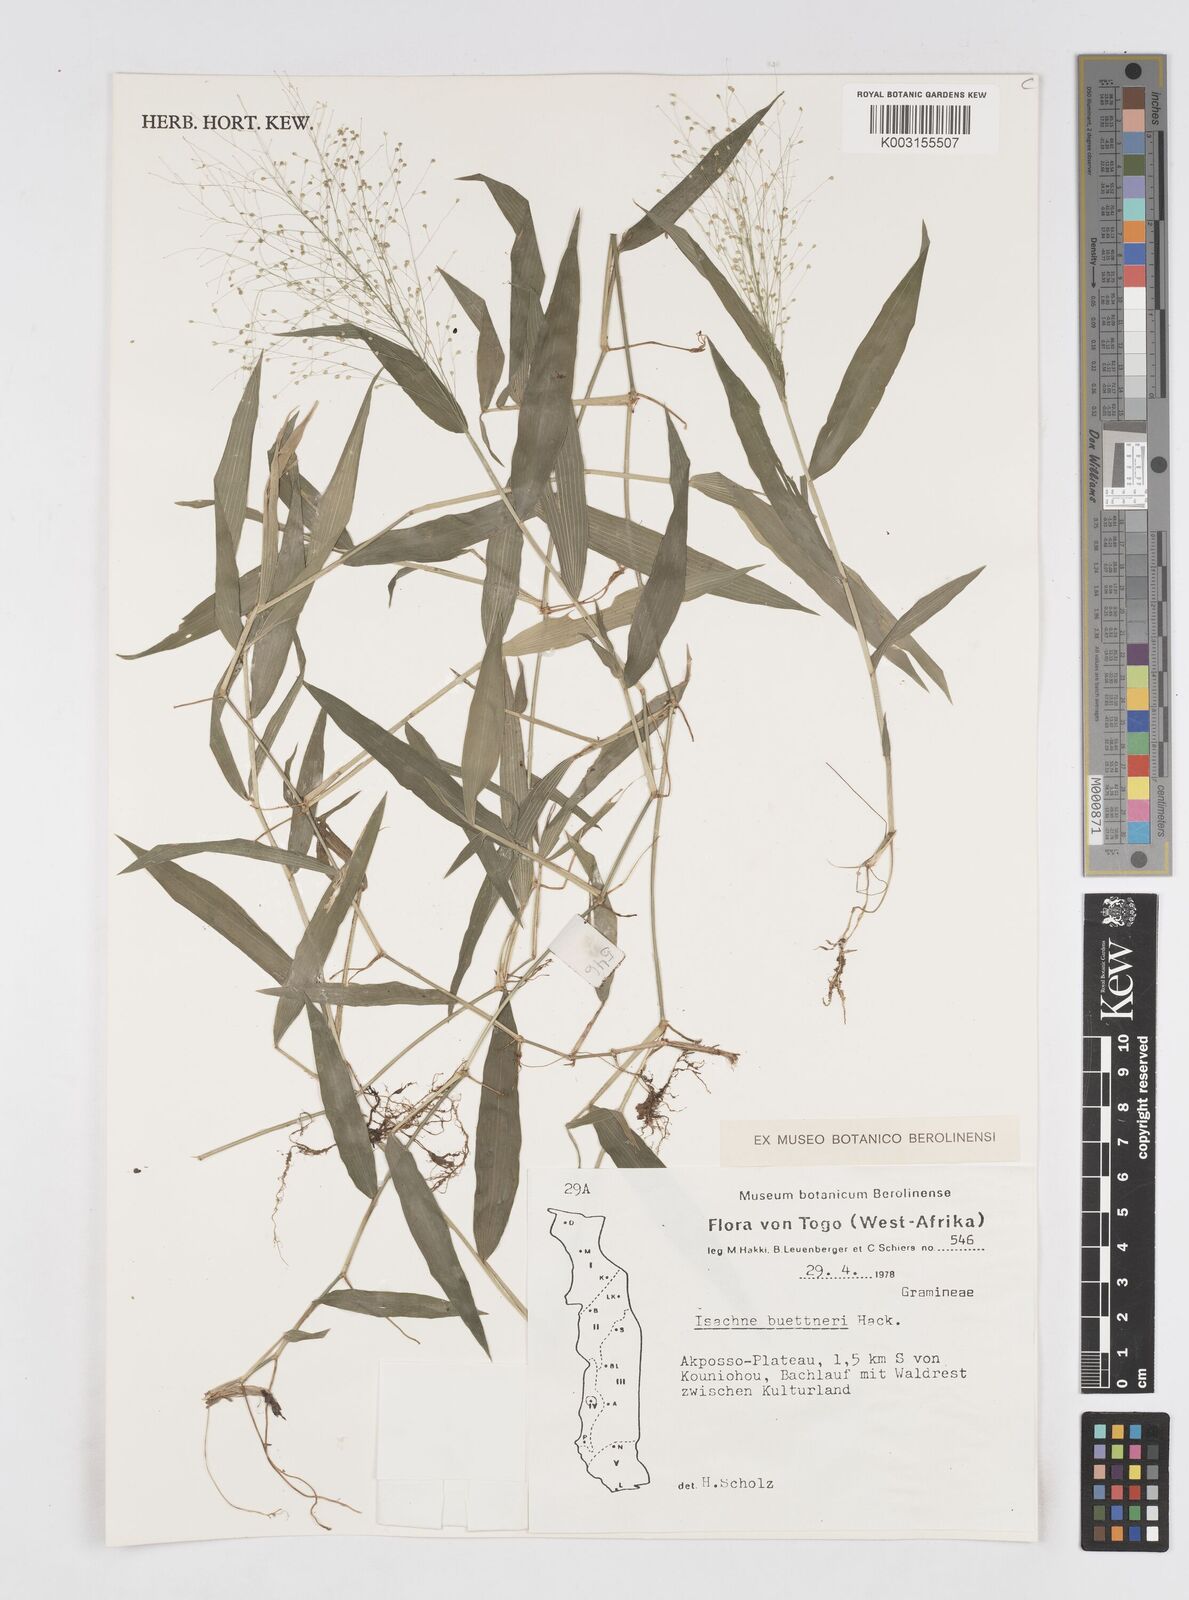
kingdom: Plantae
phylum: Tracheophyta
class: Liliopsida
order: Poales
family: Poaceae
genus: Isachne
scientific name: Isachne albens
